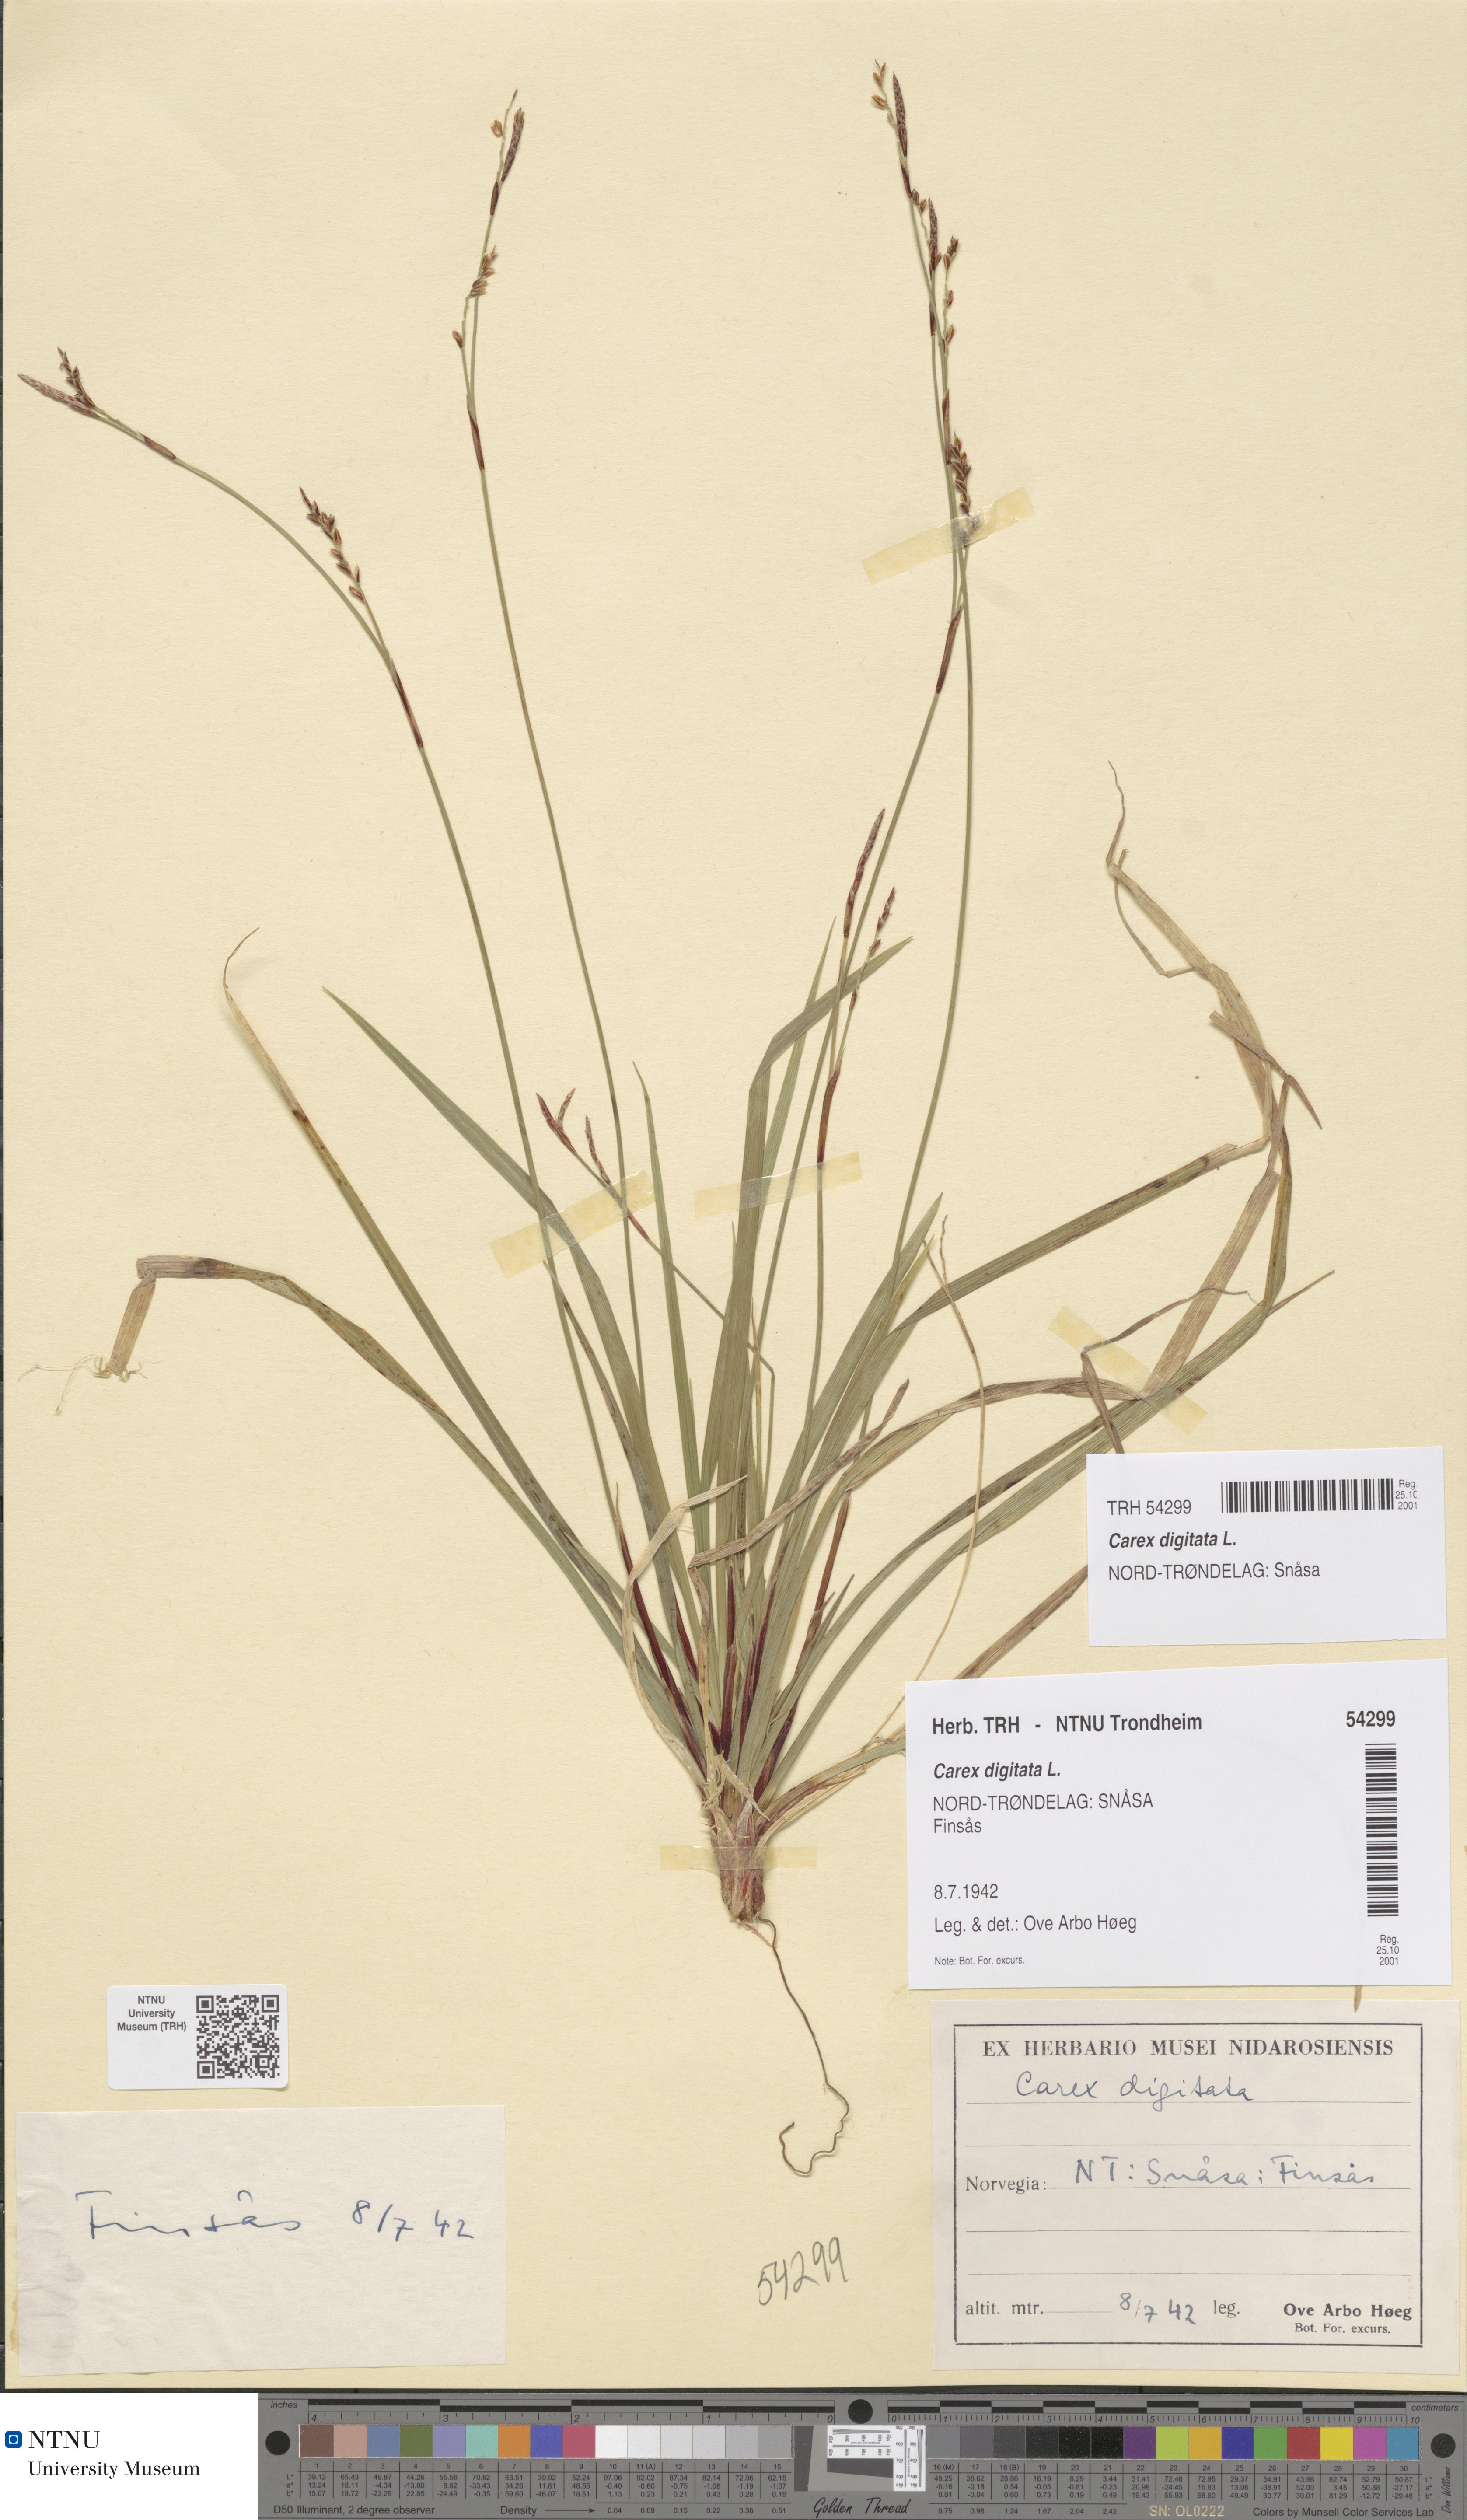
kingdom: Plantae
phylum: Tracheophyta
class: Liliopsida
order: Poales
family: Cyperaceae
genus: Carex
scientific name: Carex digitata
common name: Fingered sedge
